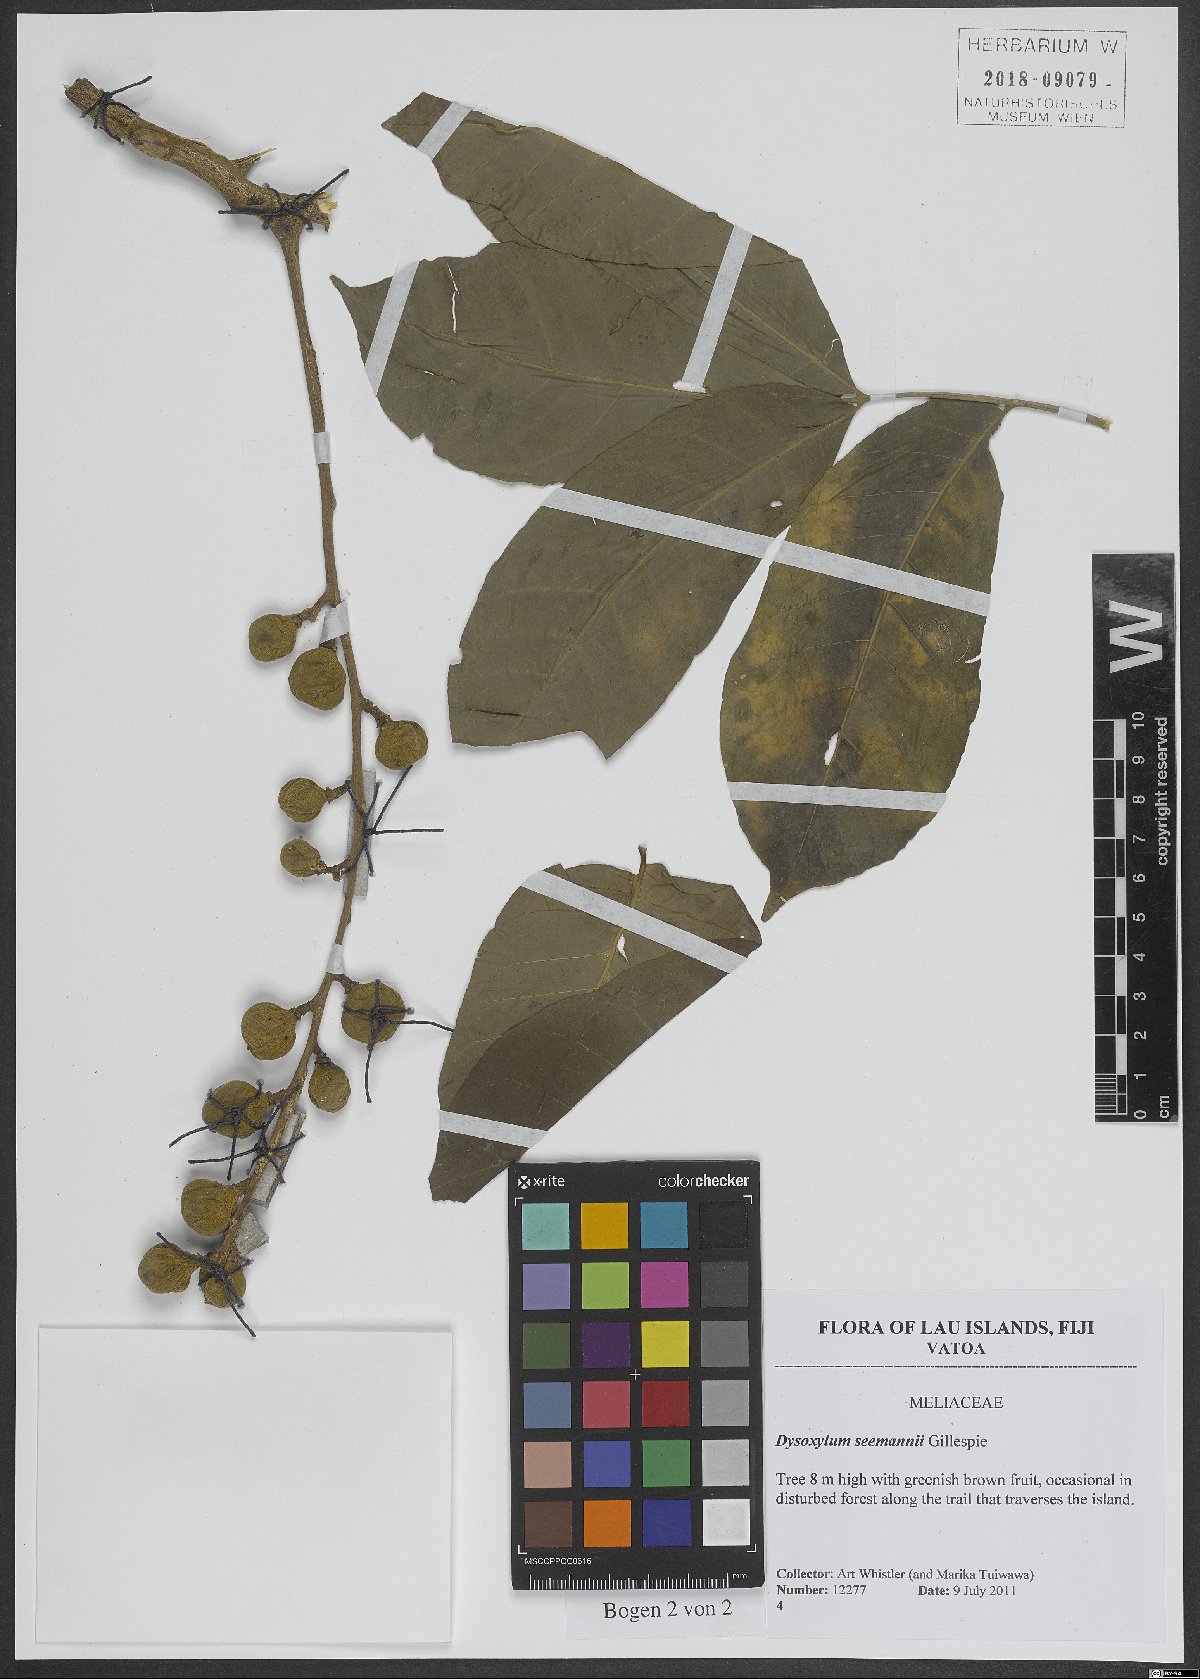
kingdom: Plantae
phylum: Tracheophyta
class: Magnoliopsida
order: Sapindales
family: Meliaceae
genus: Didymocheton
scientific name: Didymocheton multijugus
